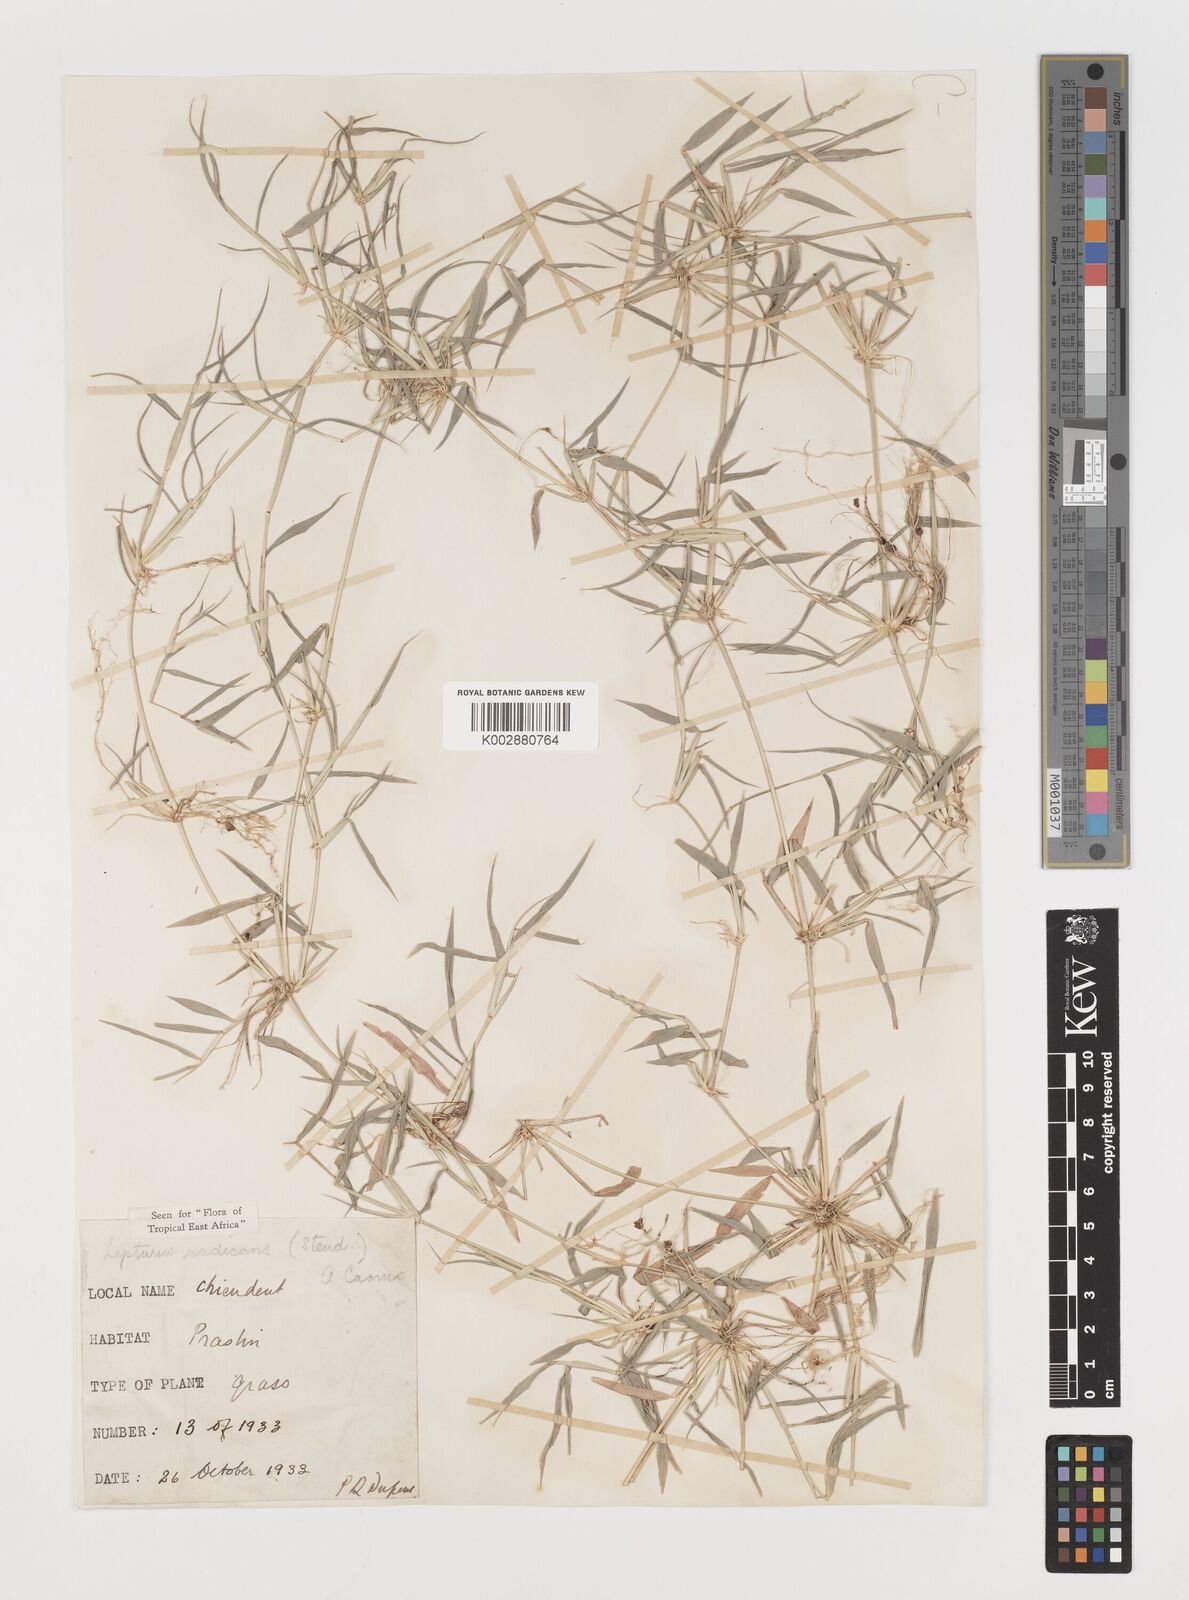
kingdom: Plantae
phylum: Tracheophyta
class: Liliopsida
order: Poales
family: Poaceae
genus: Lepturus
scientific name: Lepturus radicans
